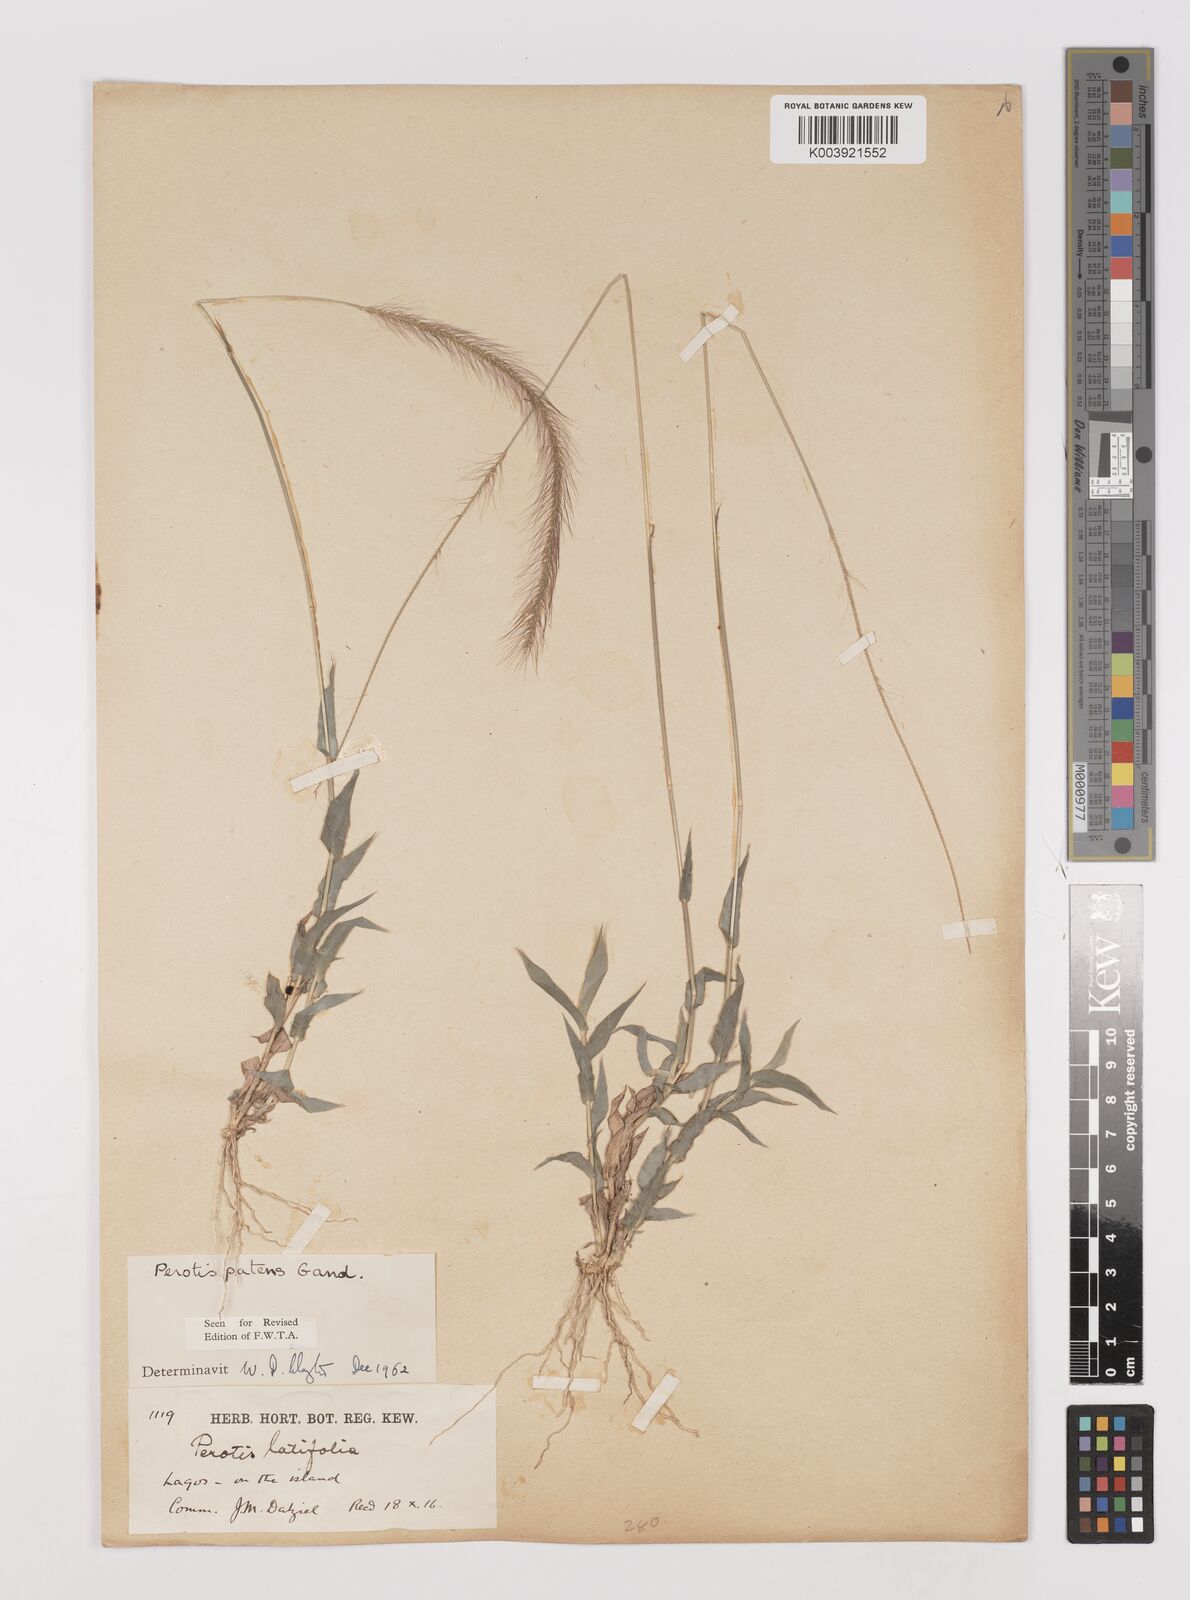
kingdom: Plantae
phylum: Tracheophyta
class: Liliopsida
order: Poales
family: Poaceae
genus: Perotis
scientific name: Perotis patens
